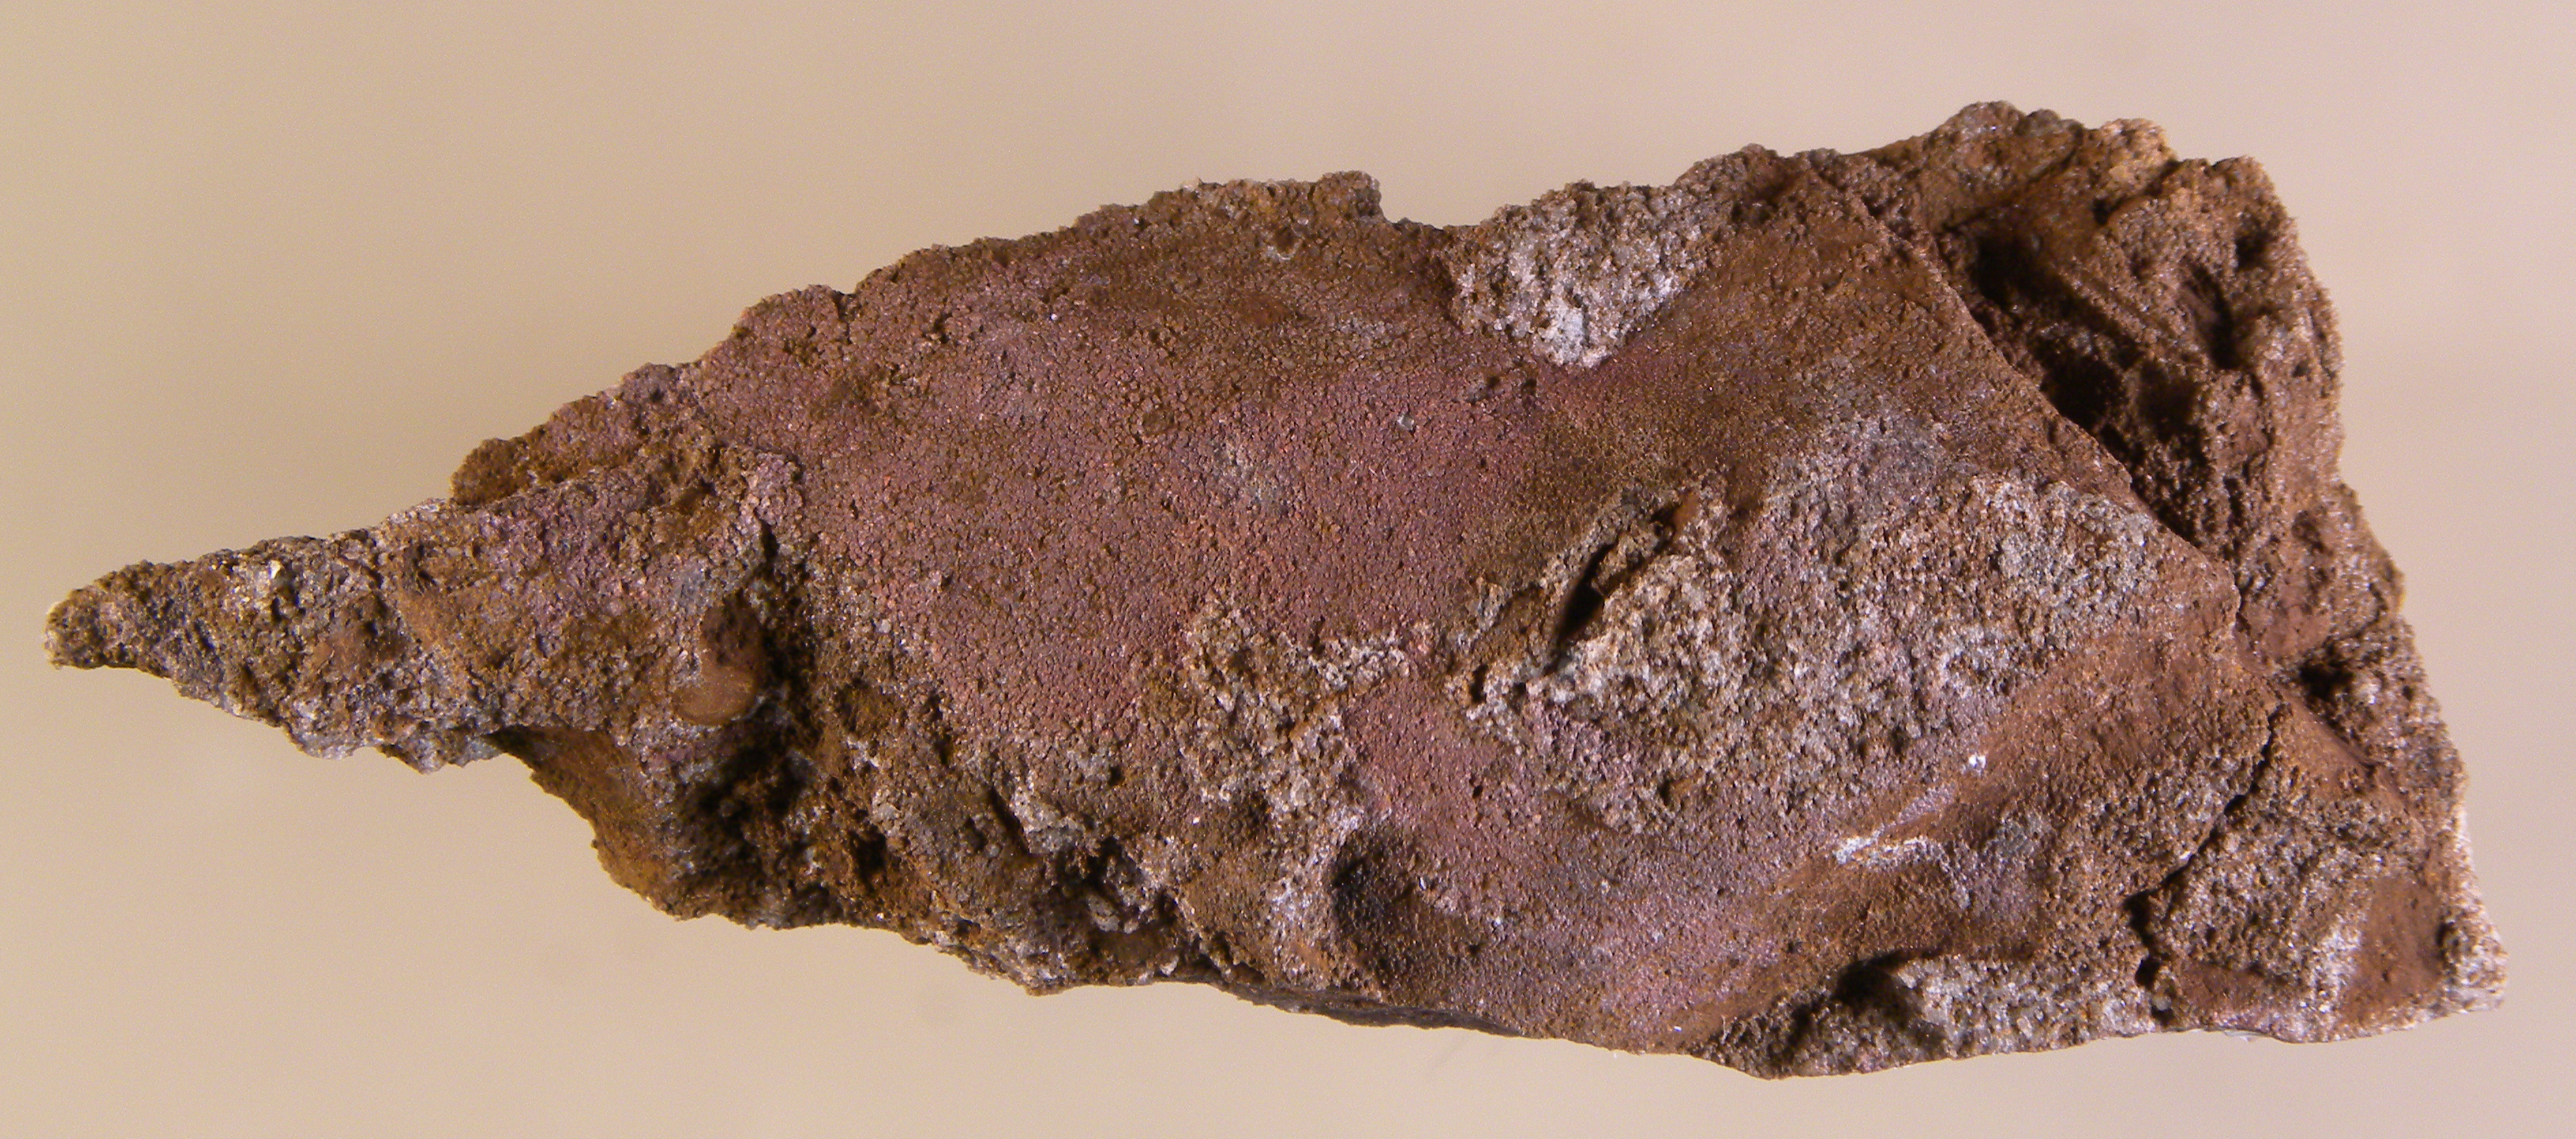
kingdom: Animalia
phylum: Mollusca
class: Bivalvia
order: Ostreida
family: Pterineidae
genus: Leptodesma
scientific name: Leptodesma
